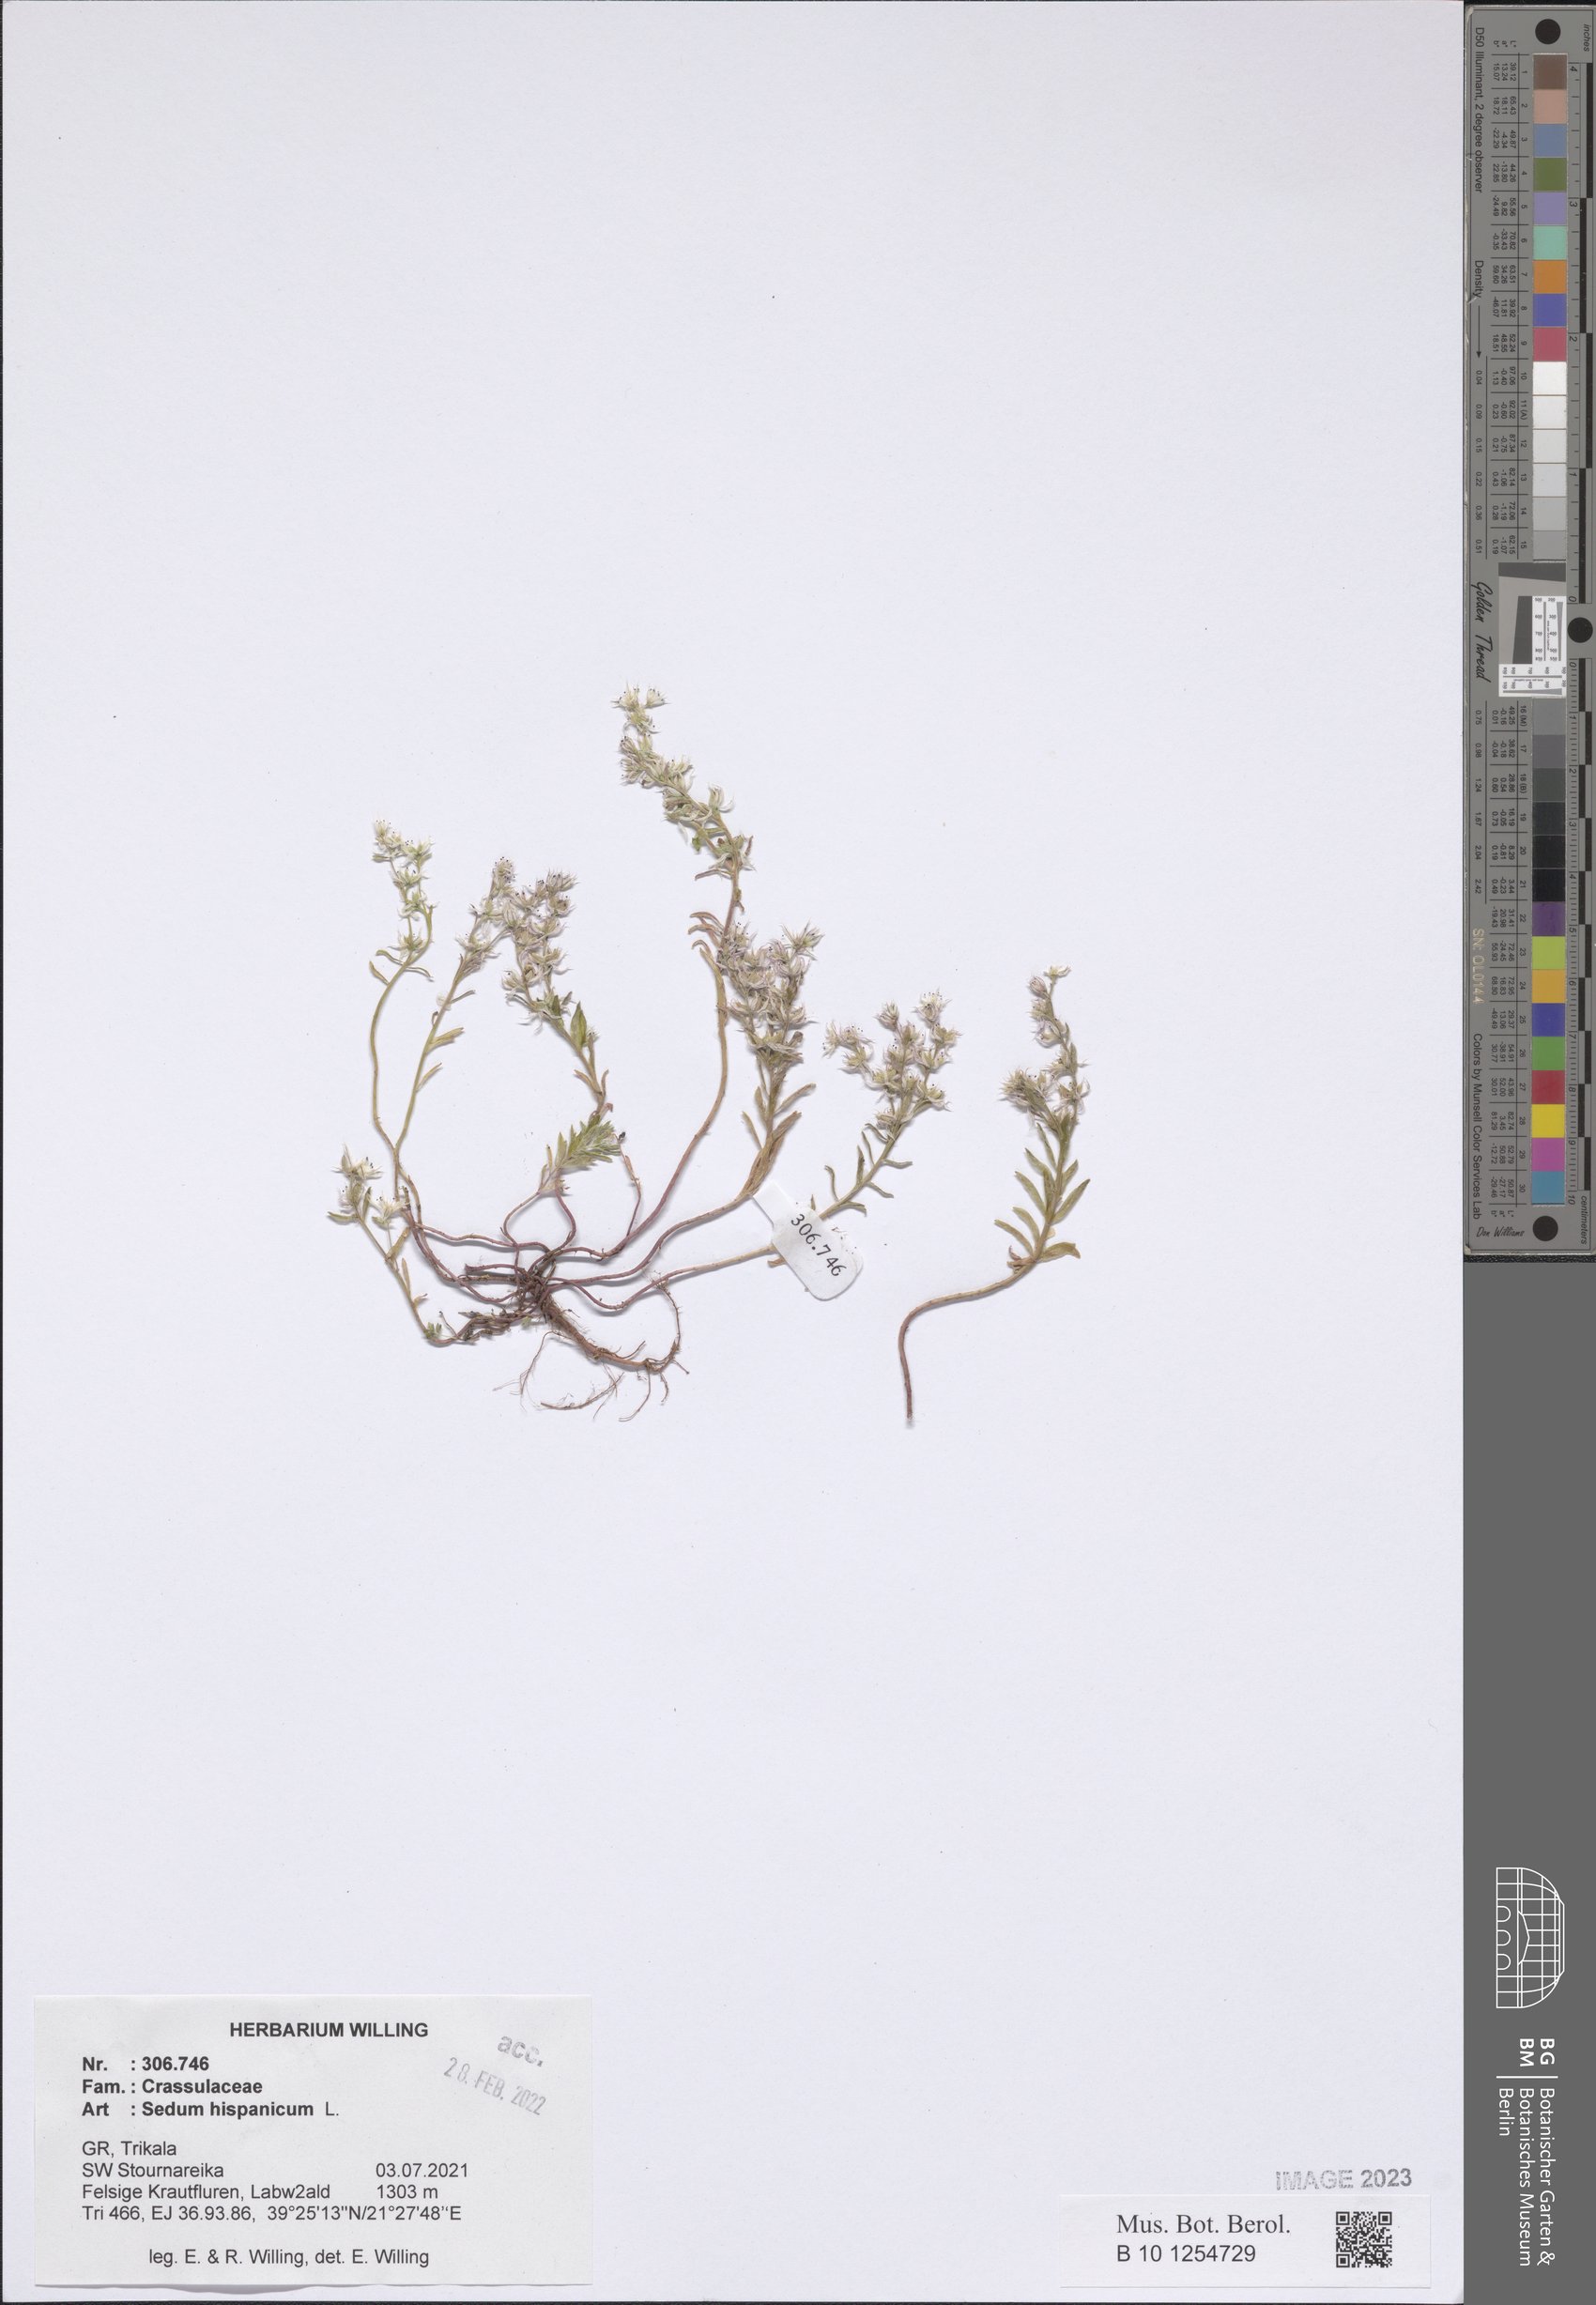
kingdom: Plantae
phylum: Tracheophyta
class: Magnoliopsida
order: Saxifragales
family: Crassulaceae
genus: Sedum
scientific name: Sedum hispanicum
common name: Spanish stonecrop
